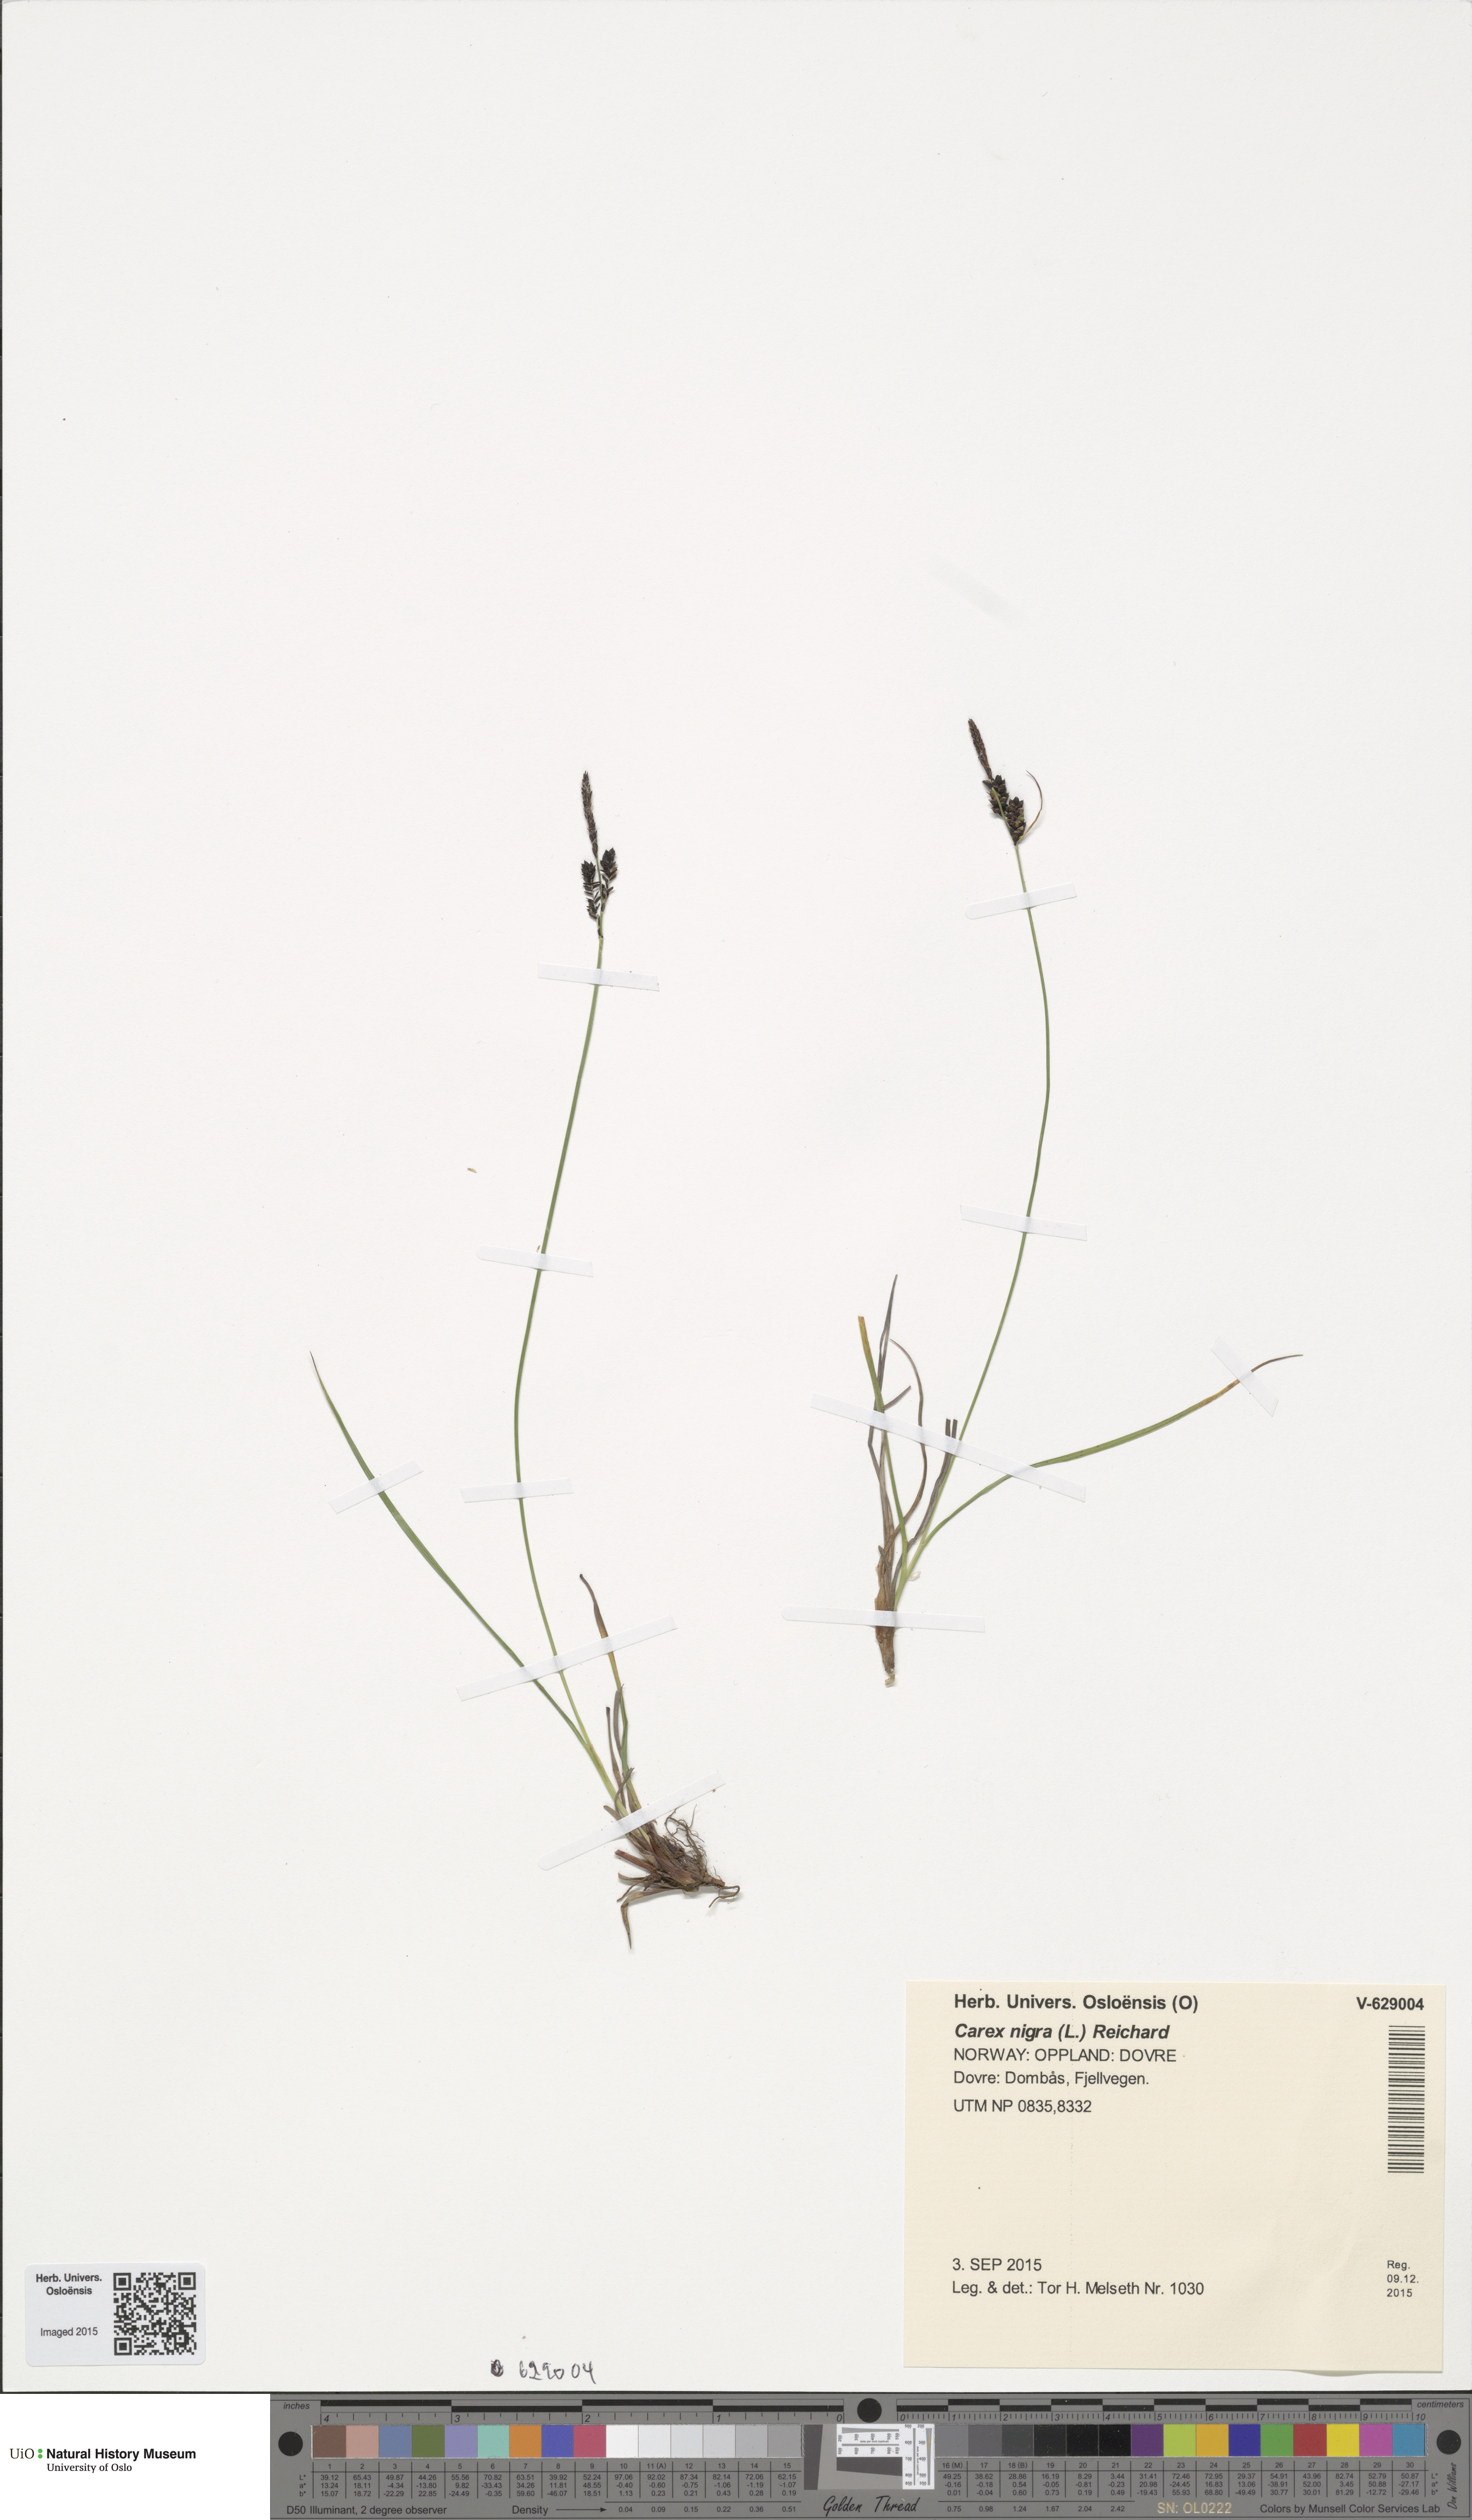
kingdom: Plantae
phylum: Tracheophyta
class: Liliopsida
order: Poales
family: Cyperaceae
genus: Carex
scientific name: Carex nigra
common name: Common sedge
